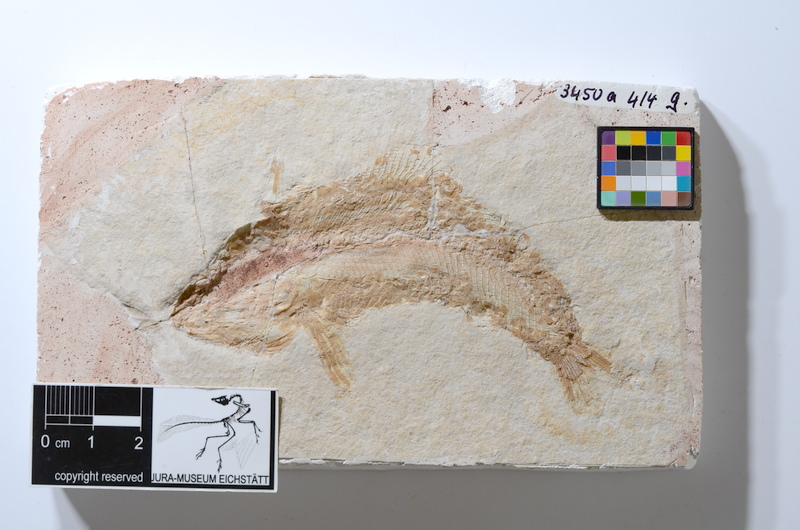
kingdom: Animalia
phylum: Chordata
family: Ophiopsiellidae
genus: Furo
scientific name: Furo latimanus
